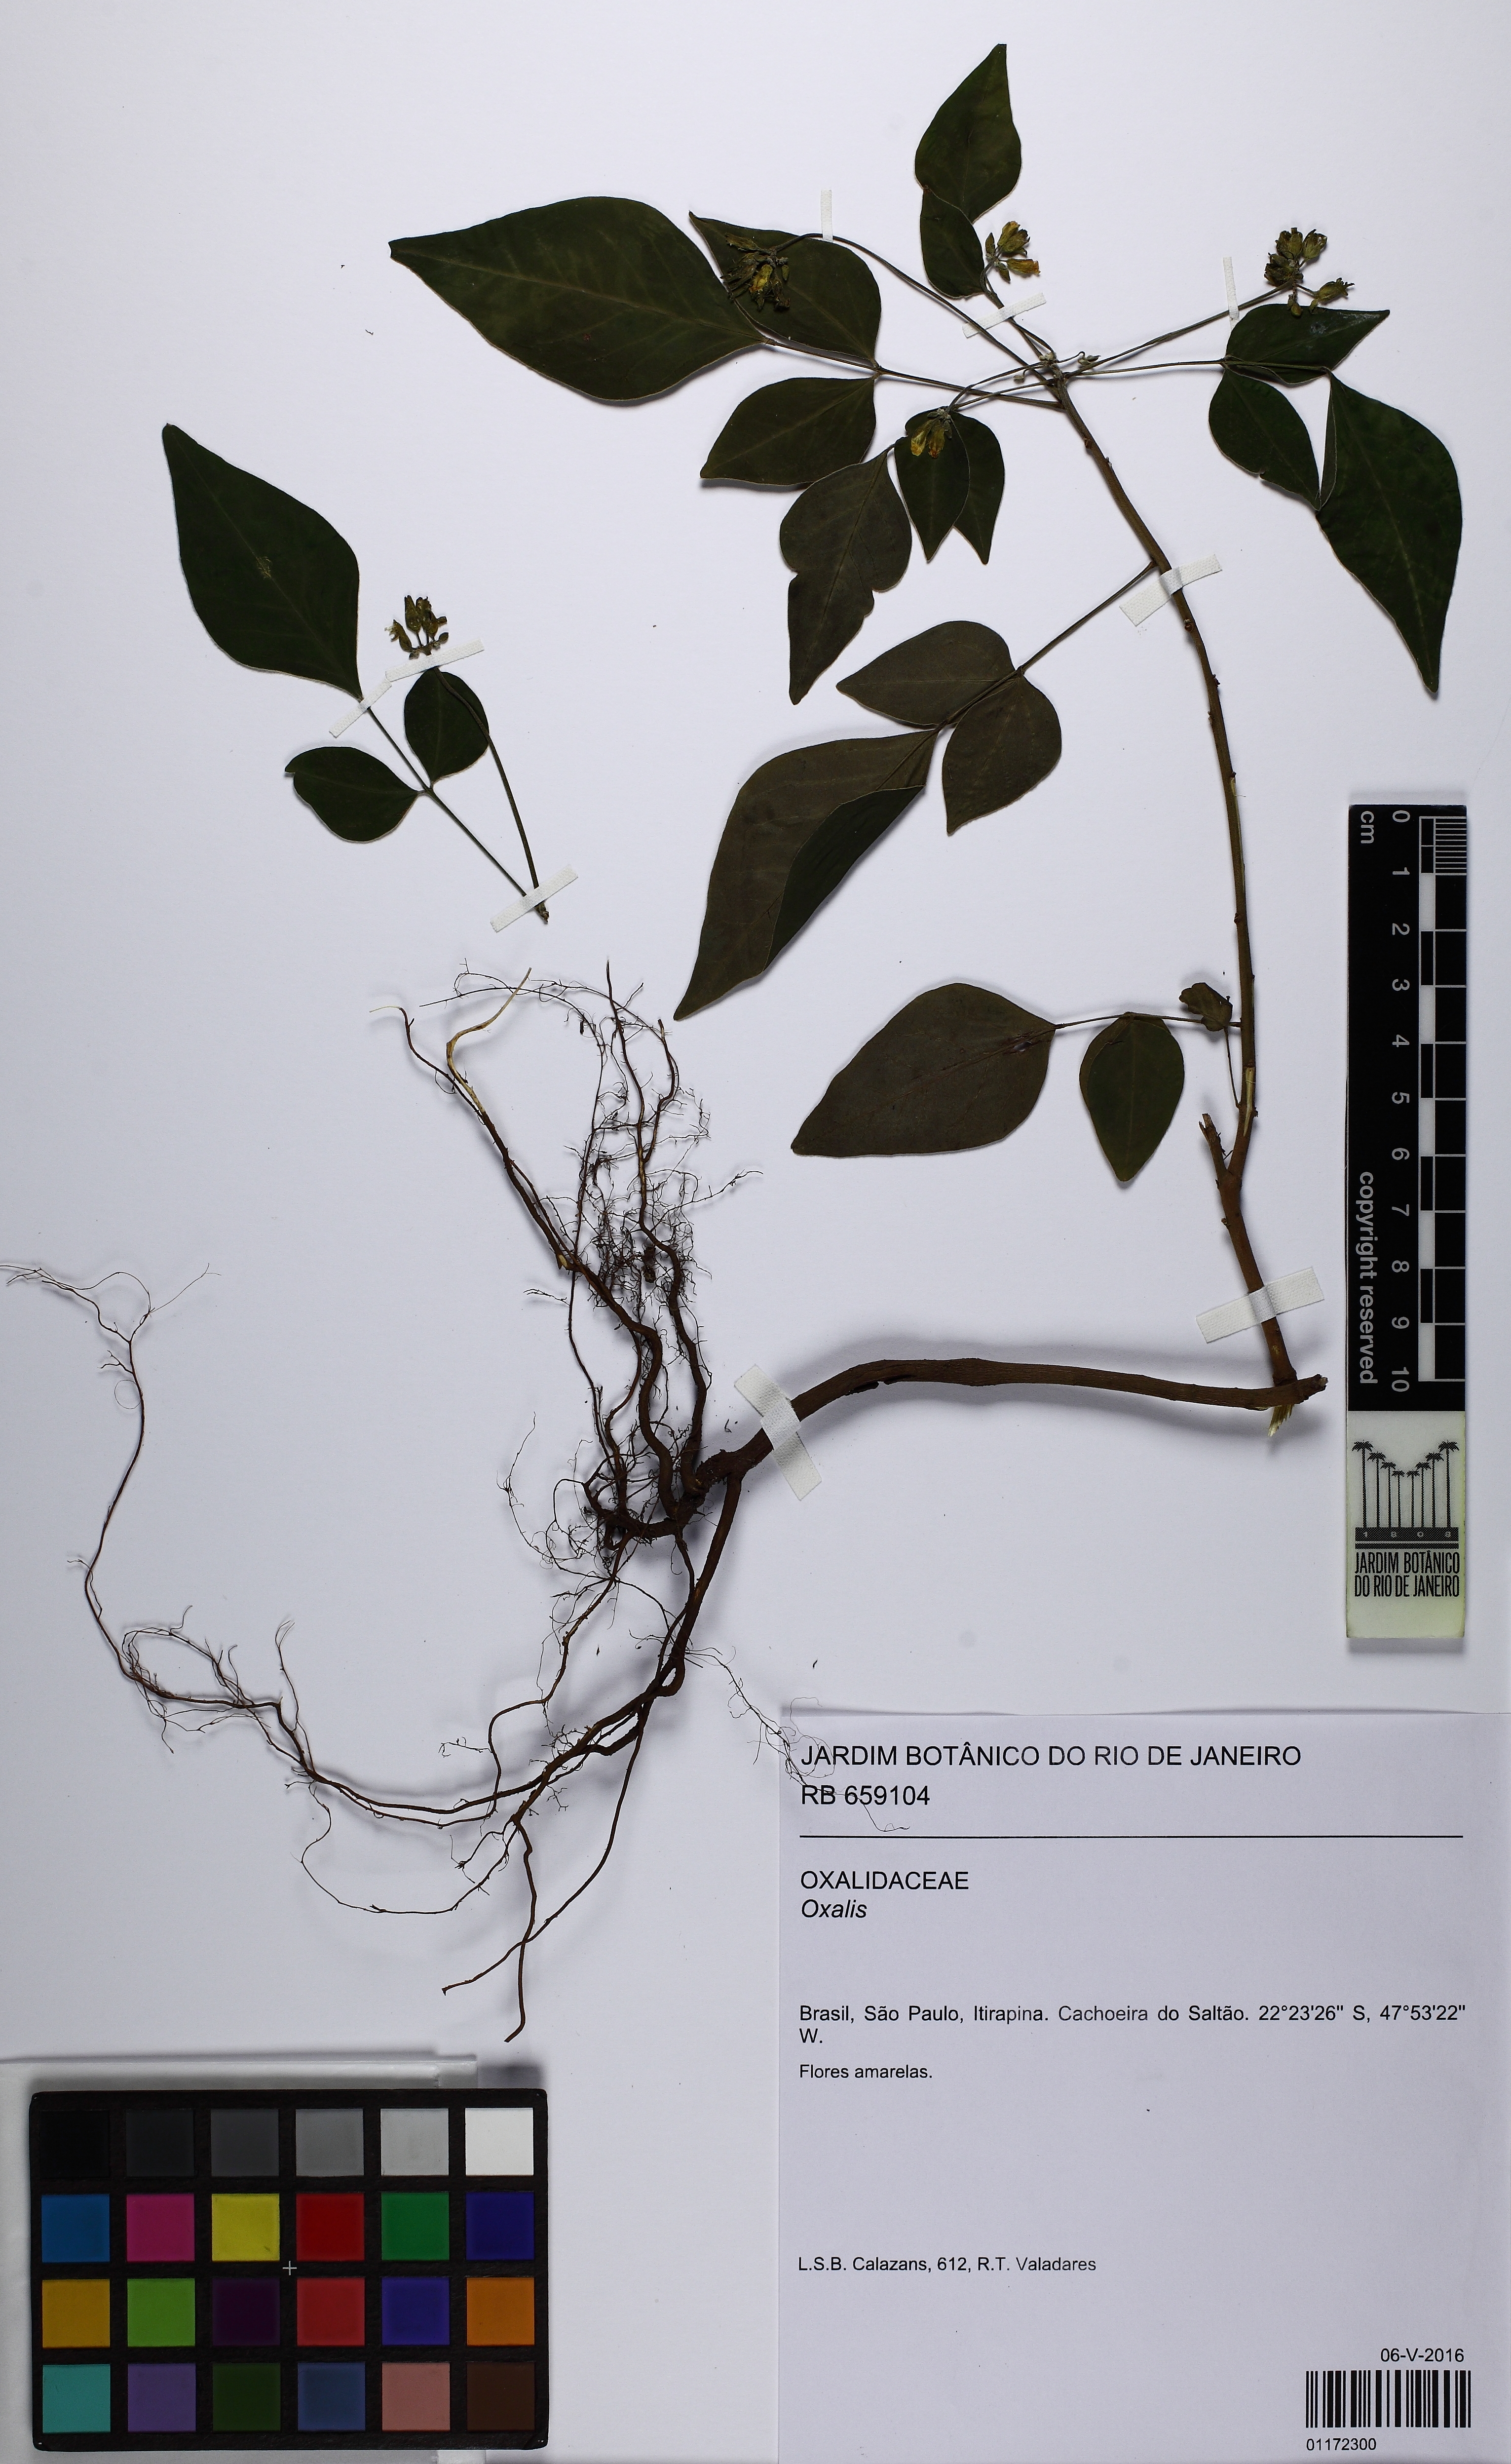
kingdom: Plantae
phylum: Tracheophyta
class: Magnoliopsida
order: Oxalidales
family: Oxalidaceae
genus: Oxalis
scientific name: Oxalis rhombeo-ovata
